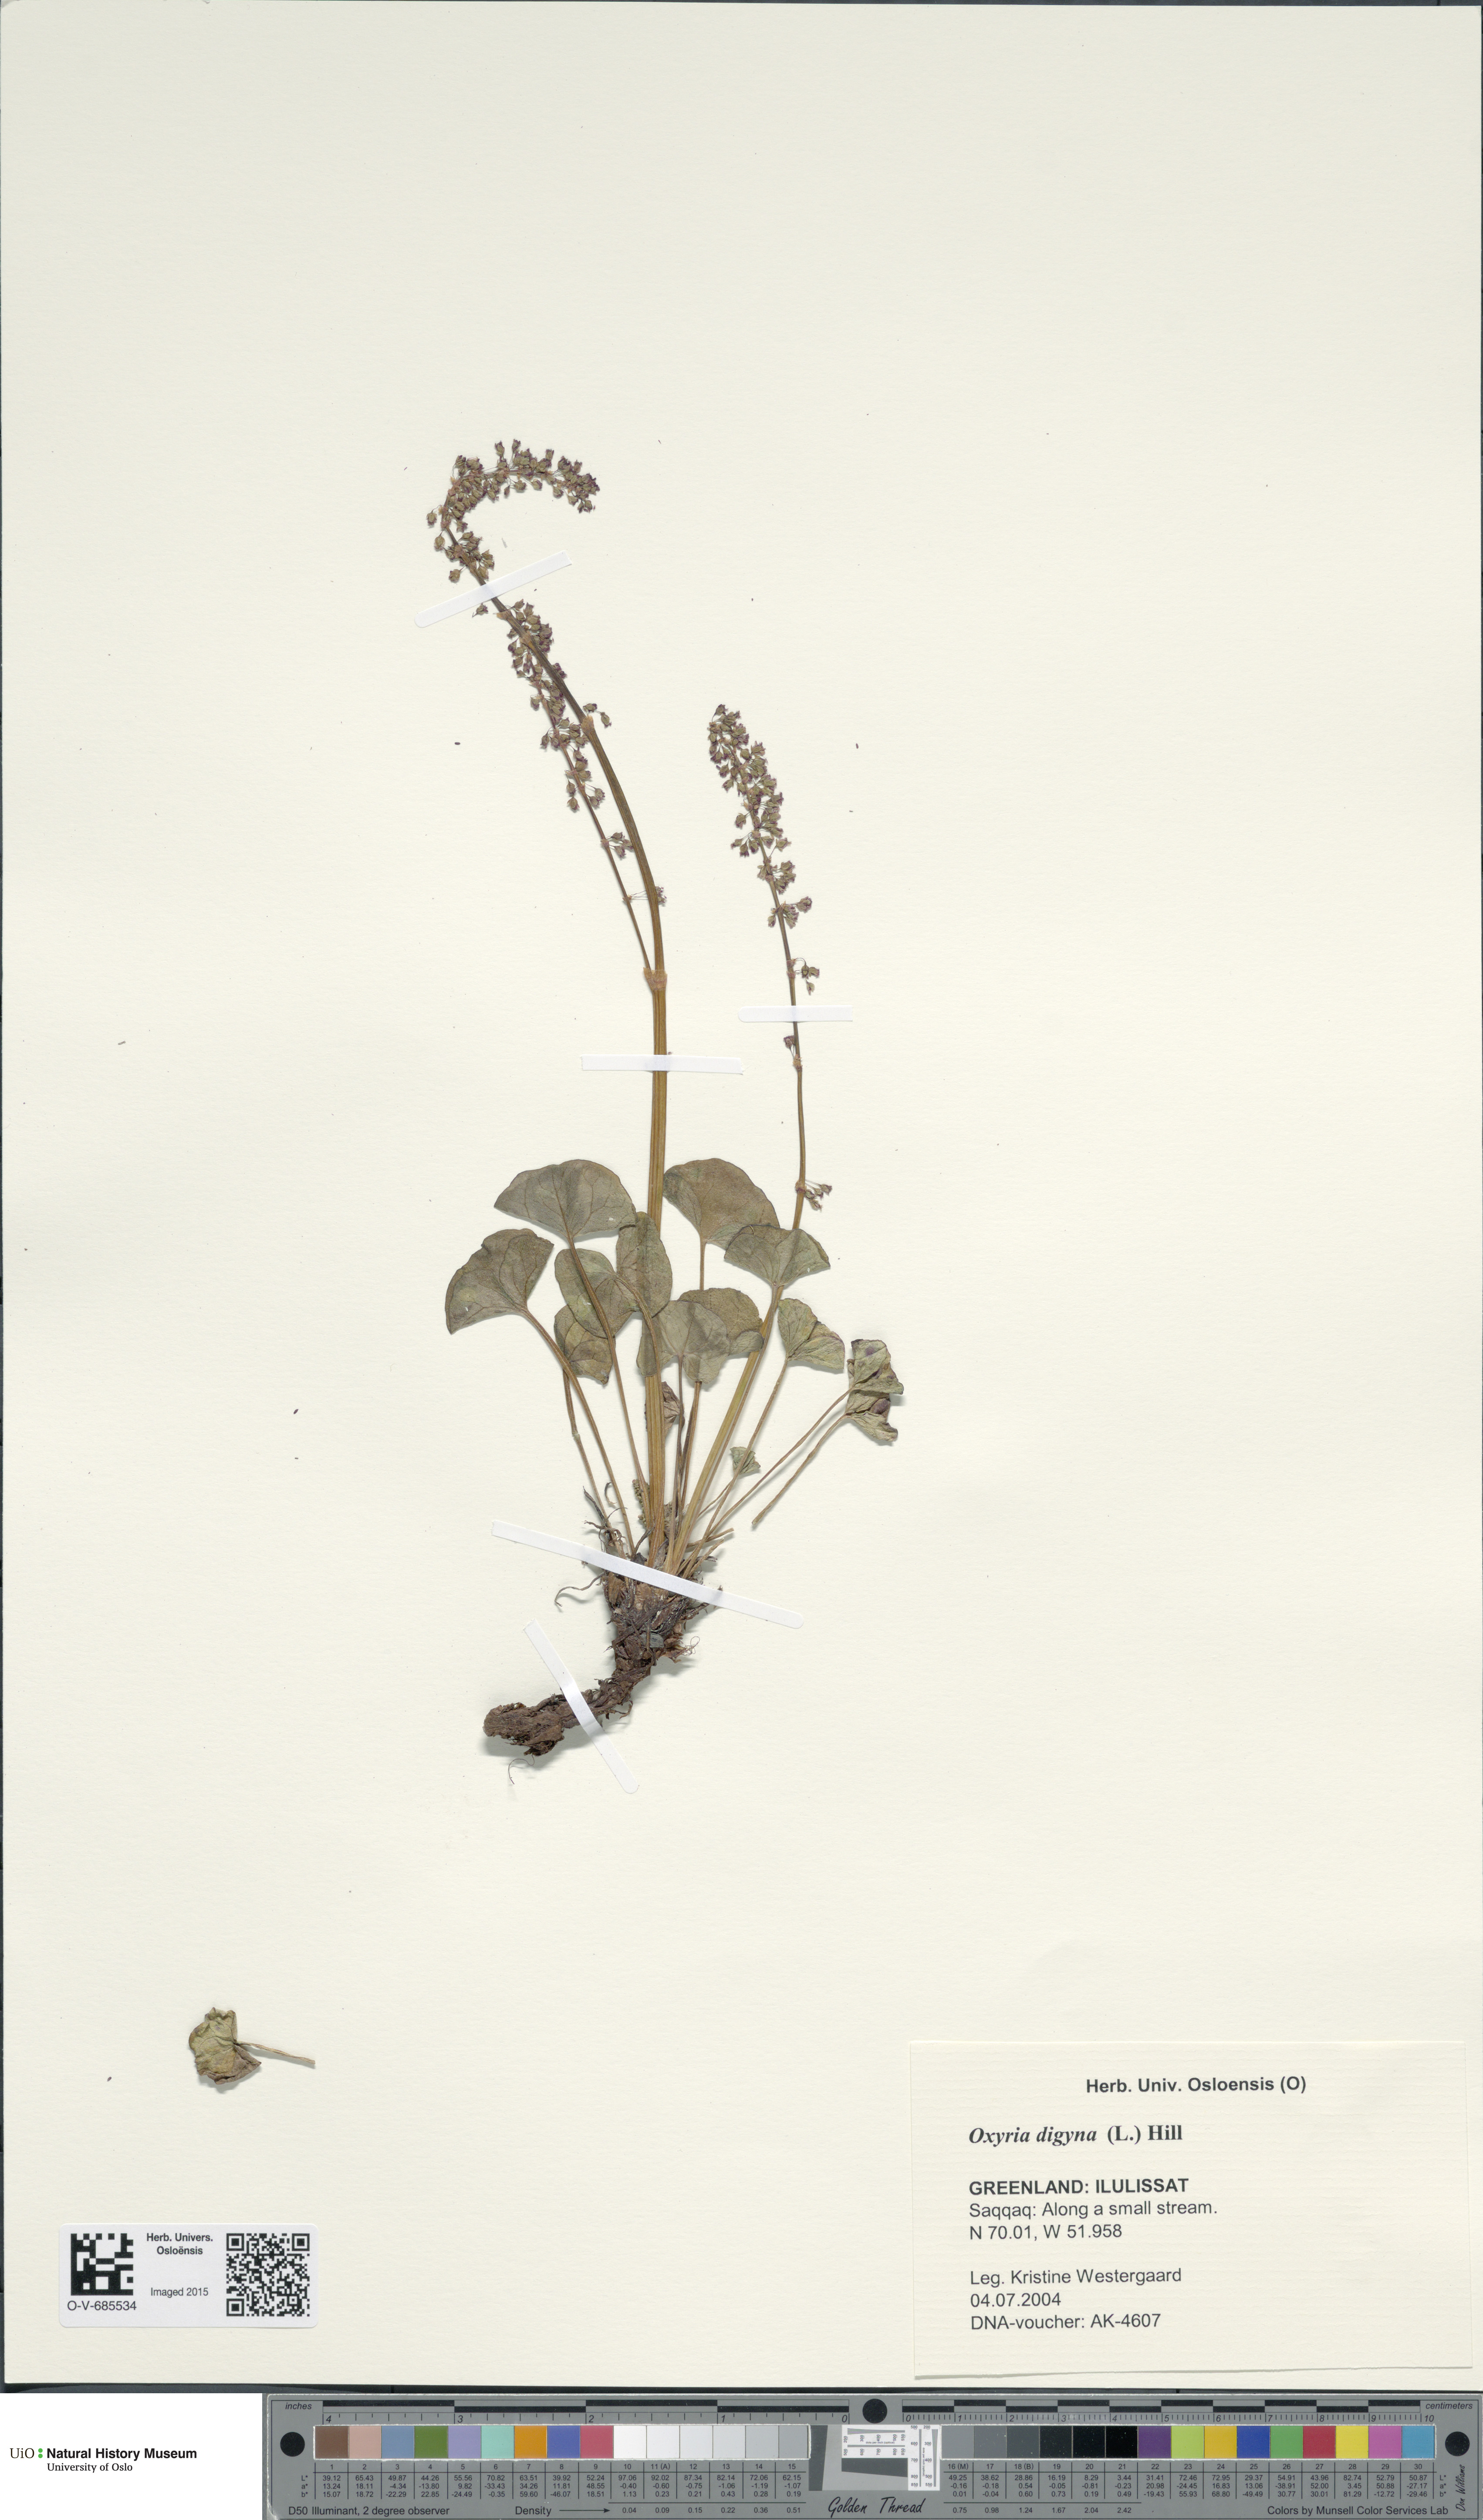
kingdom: Plantae
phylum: Tracheophyta
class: Magnoliopsida
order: Caryophyllales
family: Polygonaceae
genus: Oxyria
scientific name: Oxyria digyna
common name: Alpine mountain-sorrel
